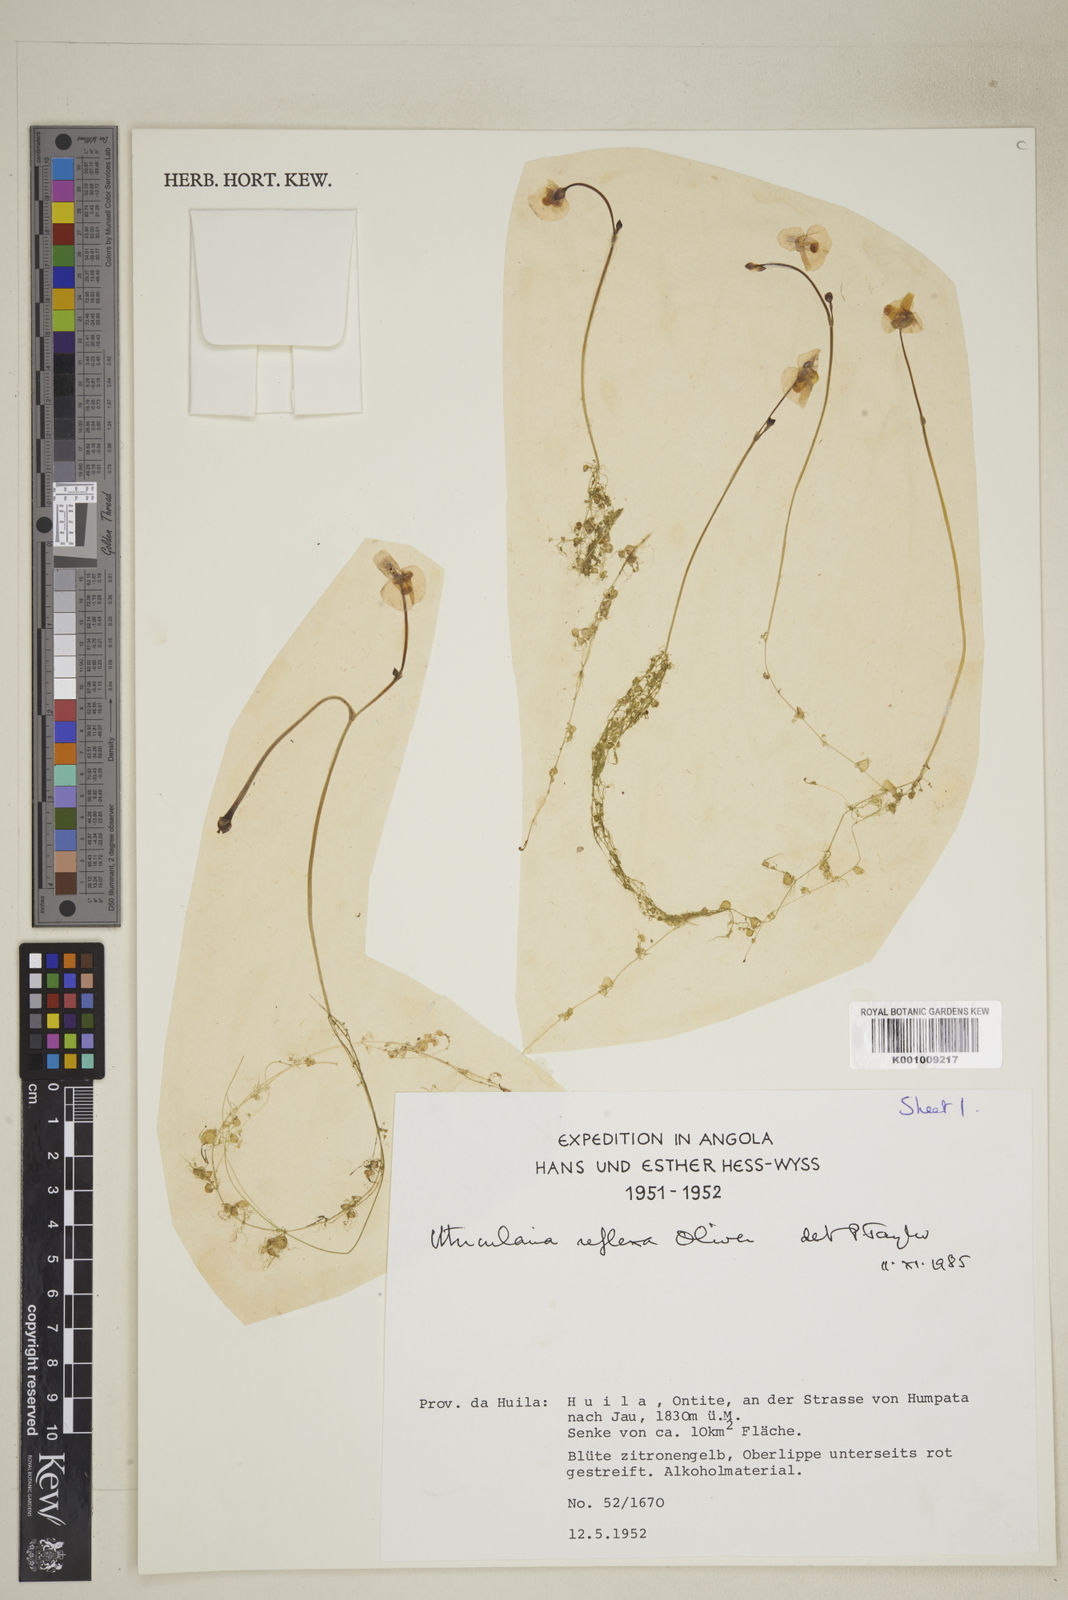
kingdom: Plantae
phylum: Tracheophyta
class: Magnoliopsida
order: Lamiales
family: Lentibulariaceae
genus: Utricularia
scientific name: Utricularia reflexa
